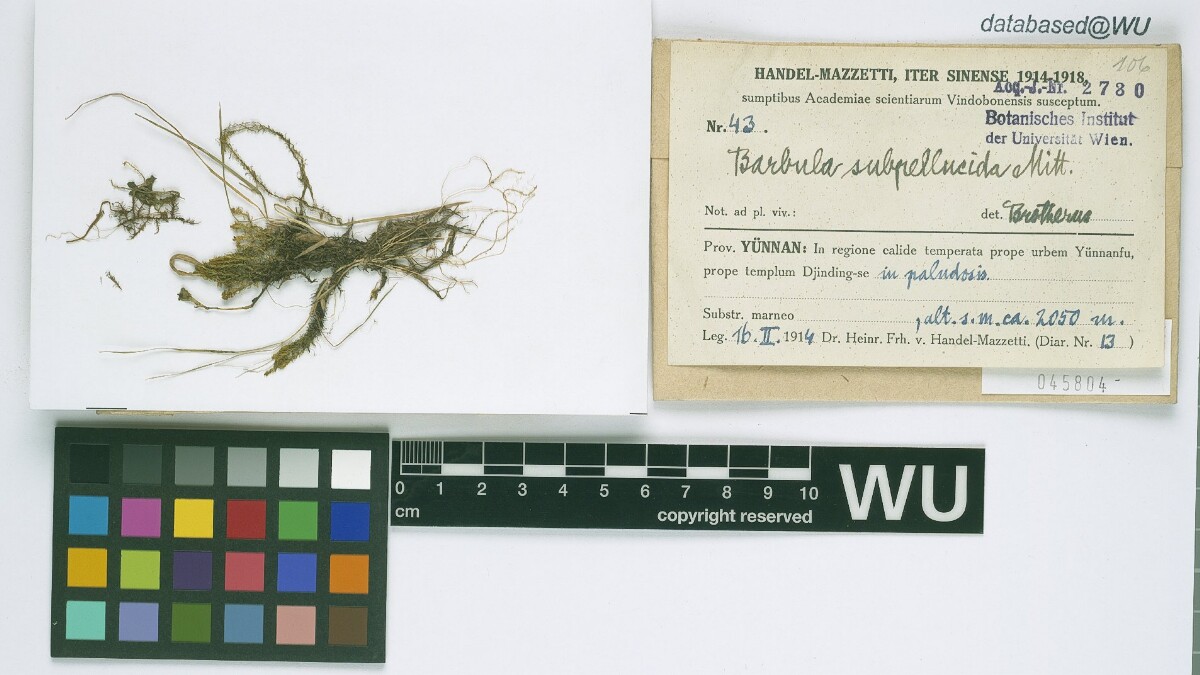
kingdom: Plantae
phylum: Bryophyta
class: Bryopsida
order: Pottiales
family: Pottiaceae
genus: Hydrogonium
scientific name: Hydrogonium subpellucidum
